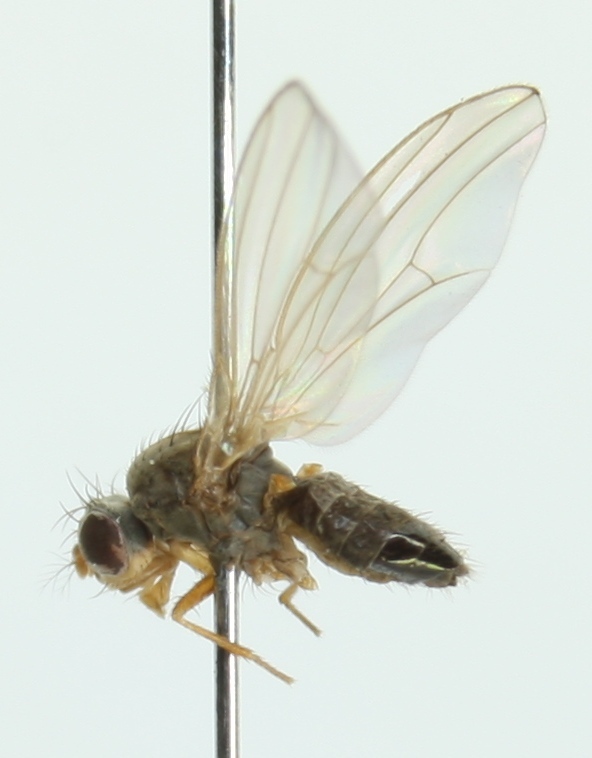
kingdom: Animalia
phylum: Arthropoda
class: Insecta
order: Diptera
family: Drosophilidae
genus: Scaptomyza
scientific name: Scaptomyza pallida
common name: Pomace fly
